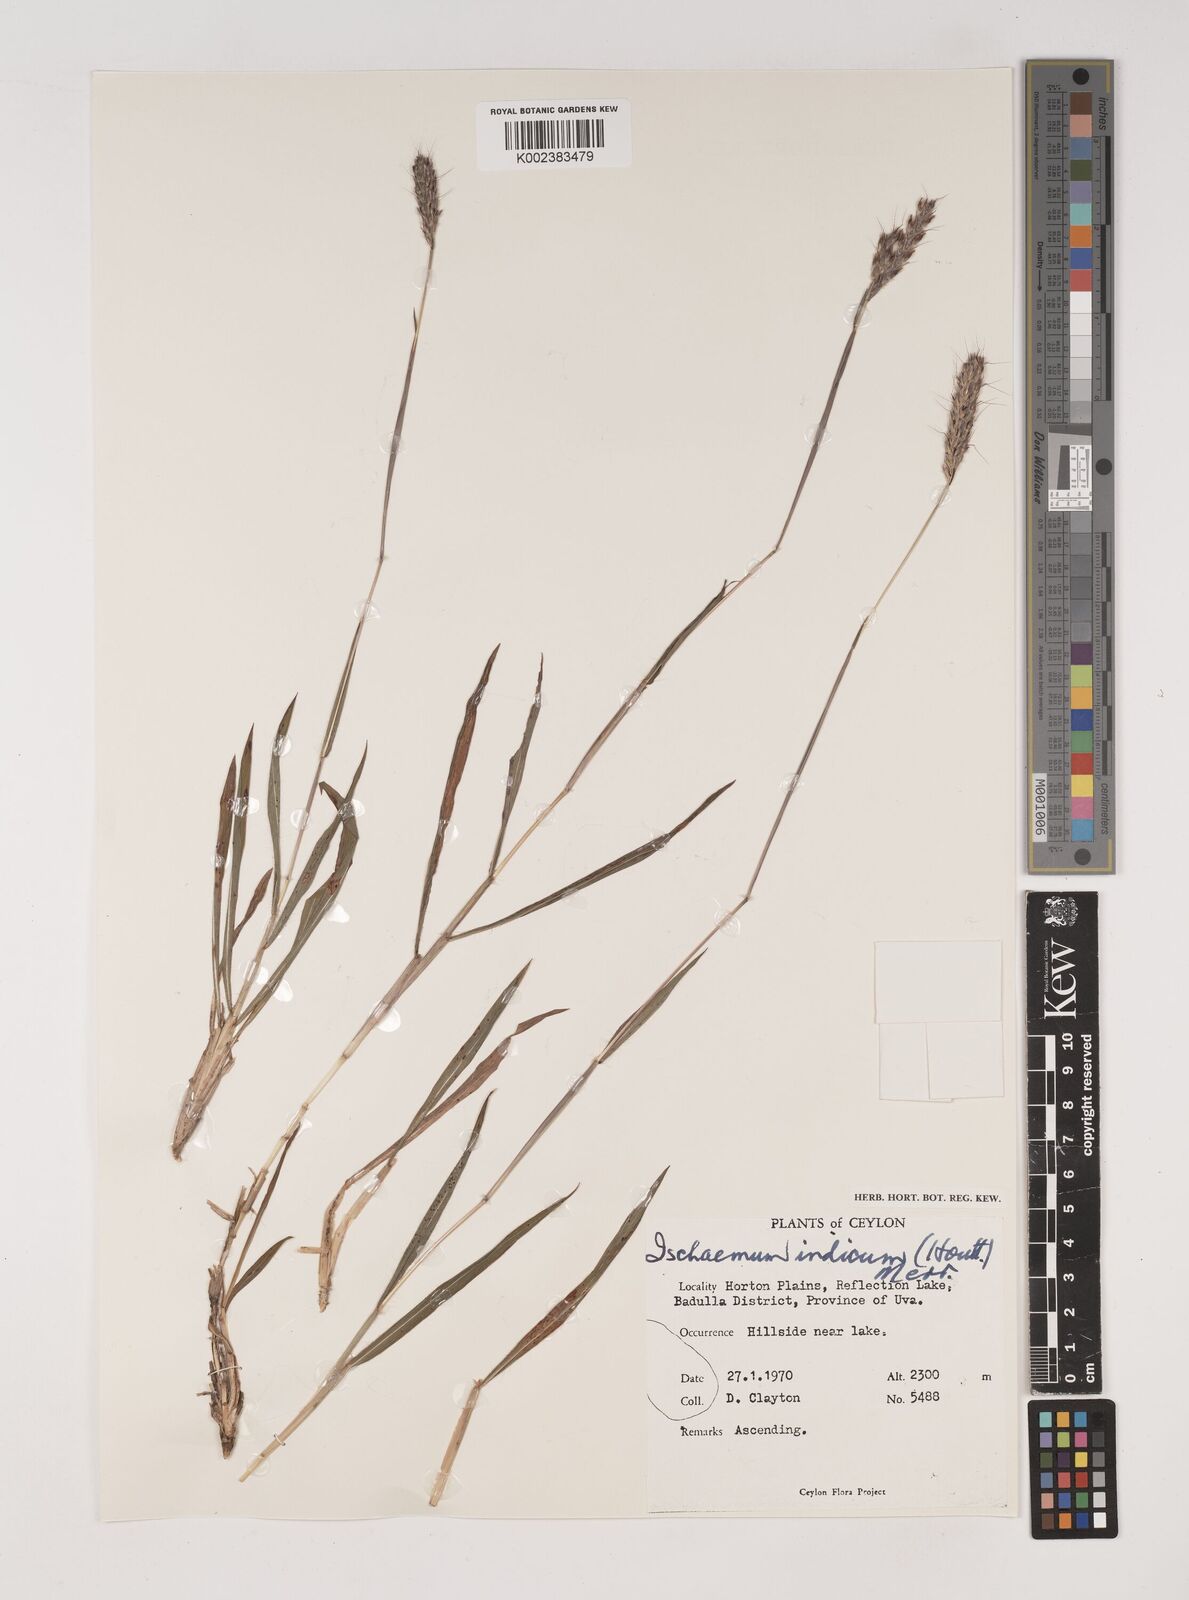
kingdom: Plantae
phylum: Tracheophyta
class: Liliopsida
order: Poales
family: Poaceae
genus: Polytrias
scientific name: Polytrias indica
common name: Indian murainagrass
